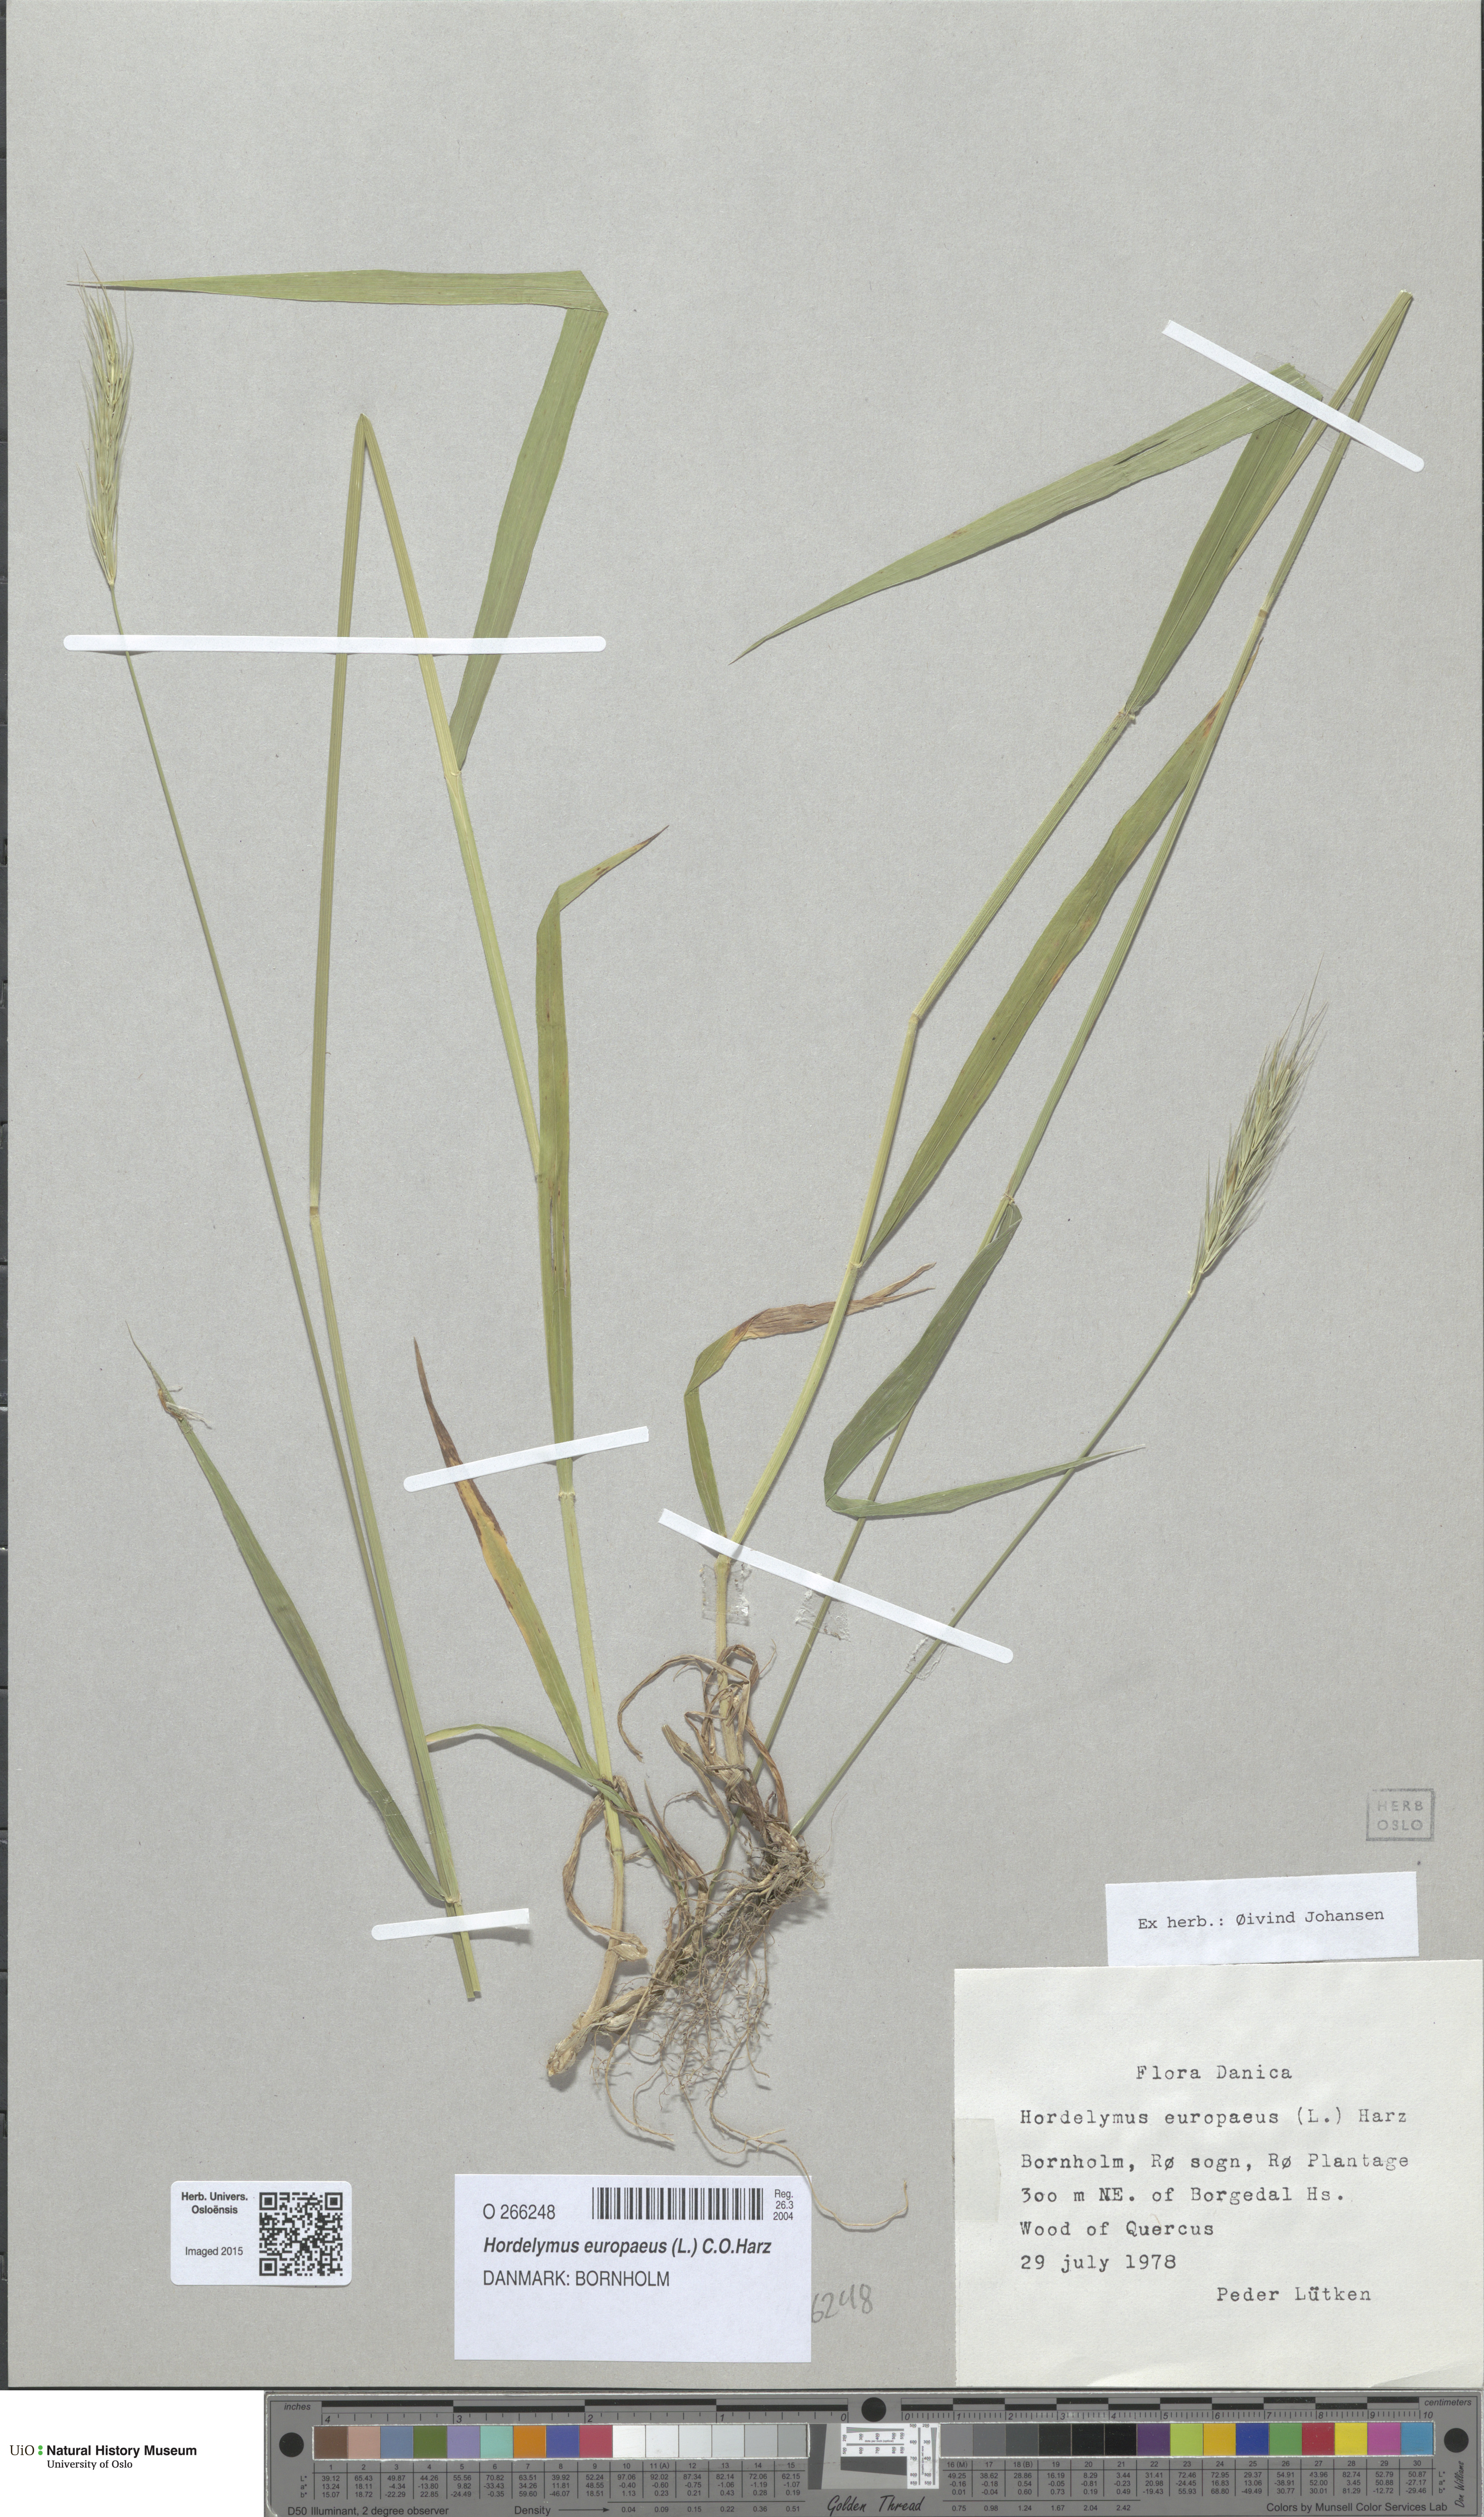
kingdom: Plantae
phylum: Tracheophyta
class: Liliopsida
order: Poales
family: Poaceae
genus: Hordelymus
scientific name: Hordelymus europaeus
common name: Wood-barley
